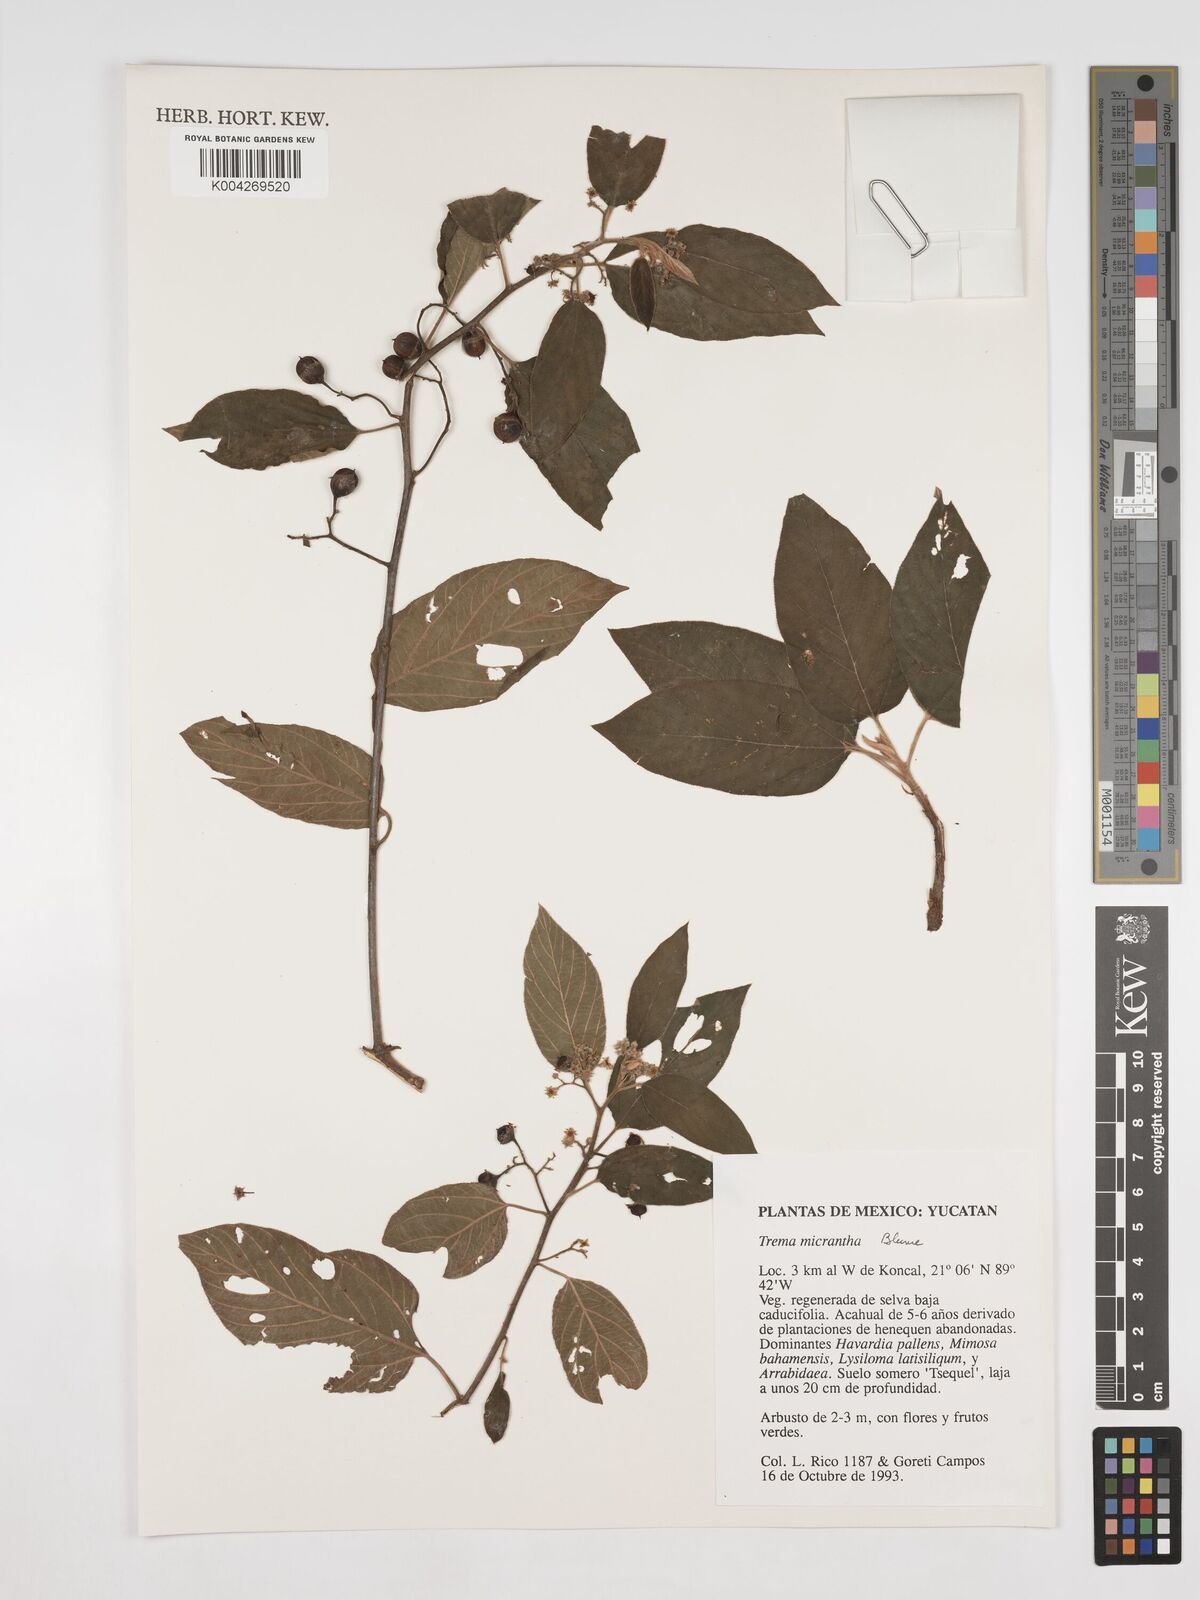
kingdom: Plantae
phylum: Tracheophyta
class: Magnoliopsida
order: Rosales
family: Cannabaceae
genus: Trema
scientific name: Trema micranthum
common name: Jamaican nettletree
